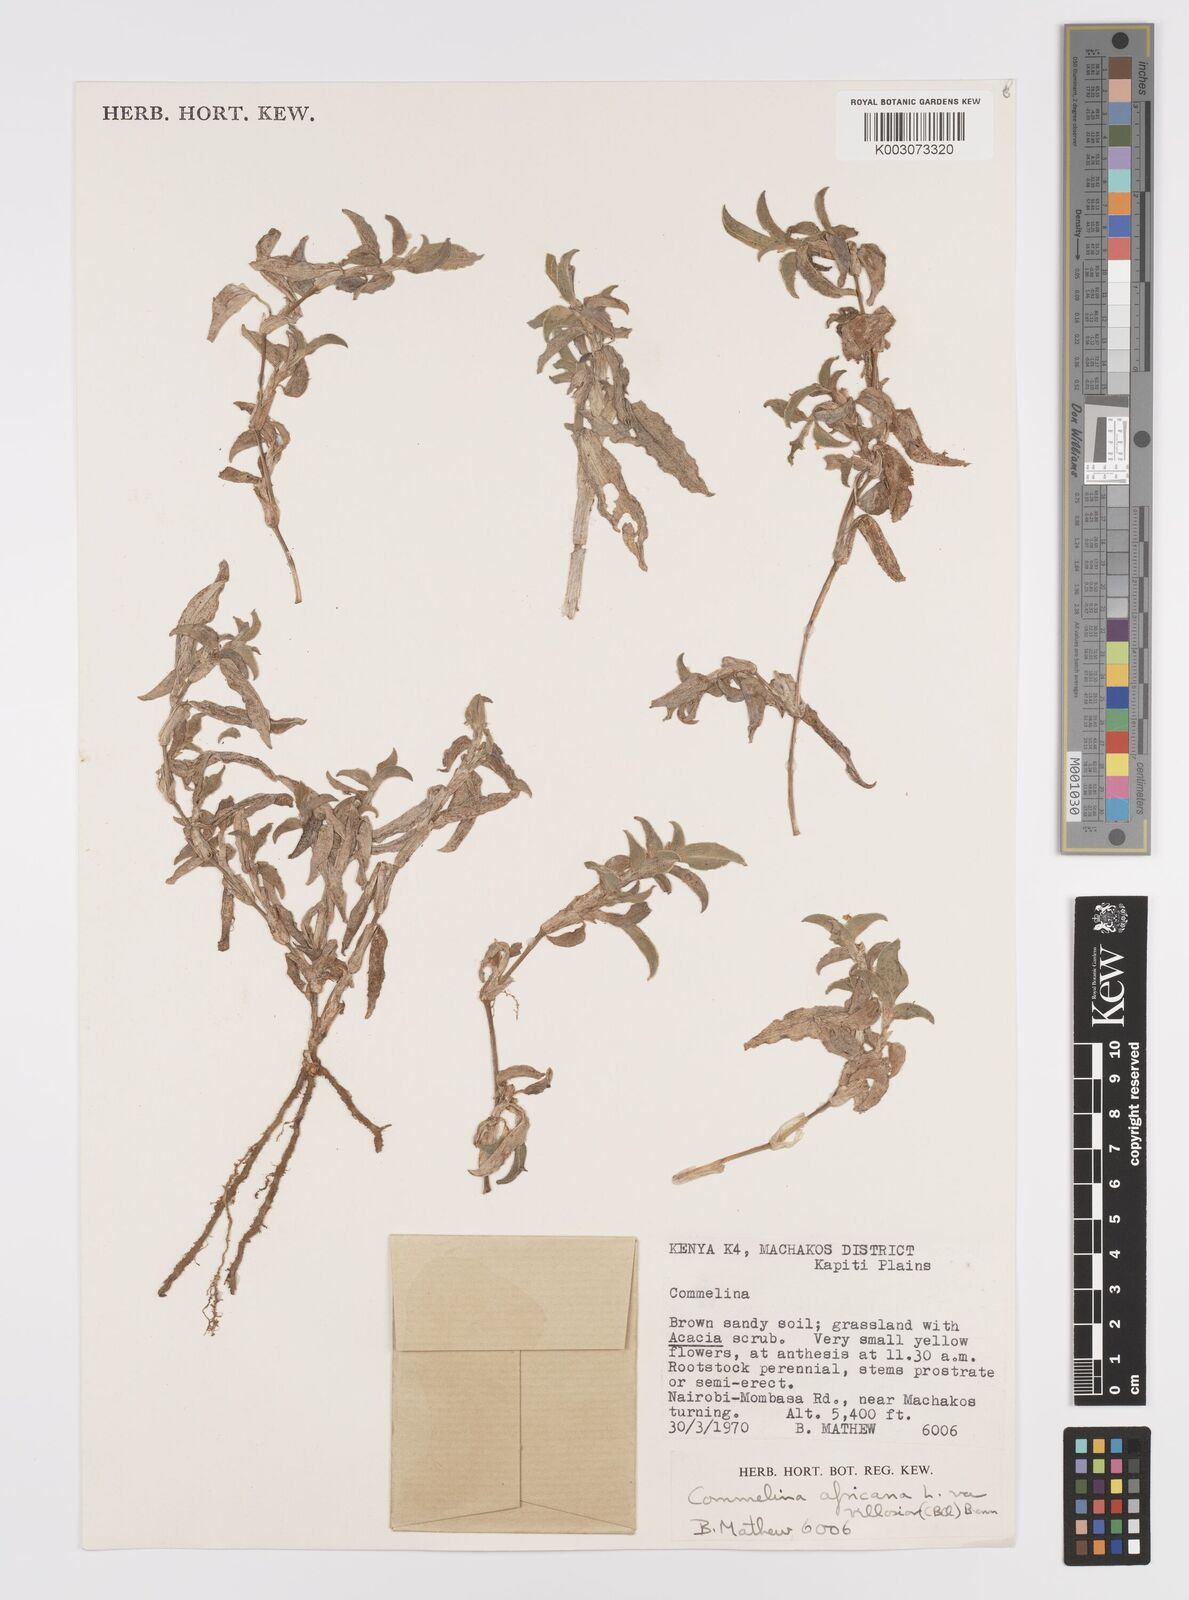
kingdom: Plantae
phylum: Tracheophyta
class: Liliopsida
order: Commelinales
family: Commelinaceae
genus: Commelina
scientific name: Commelina africana
